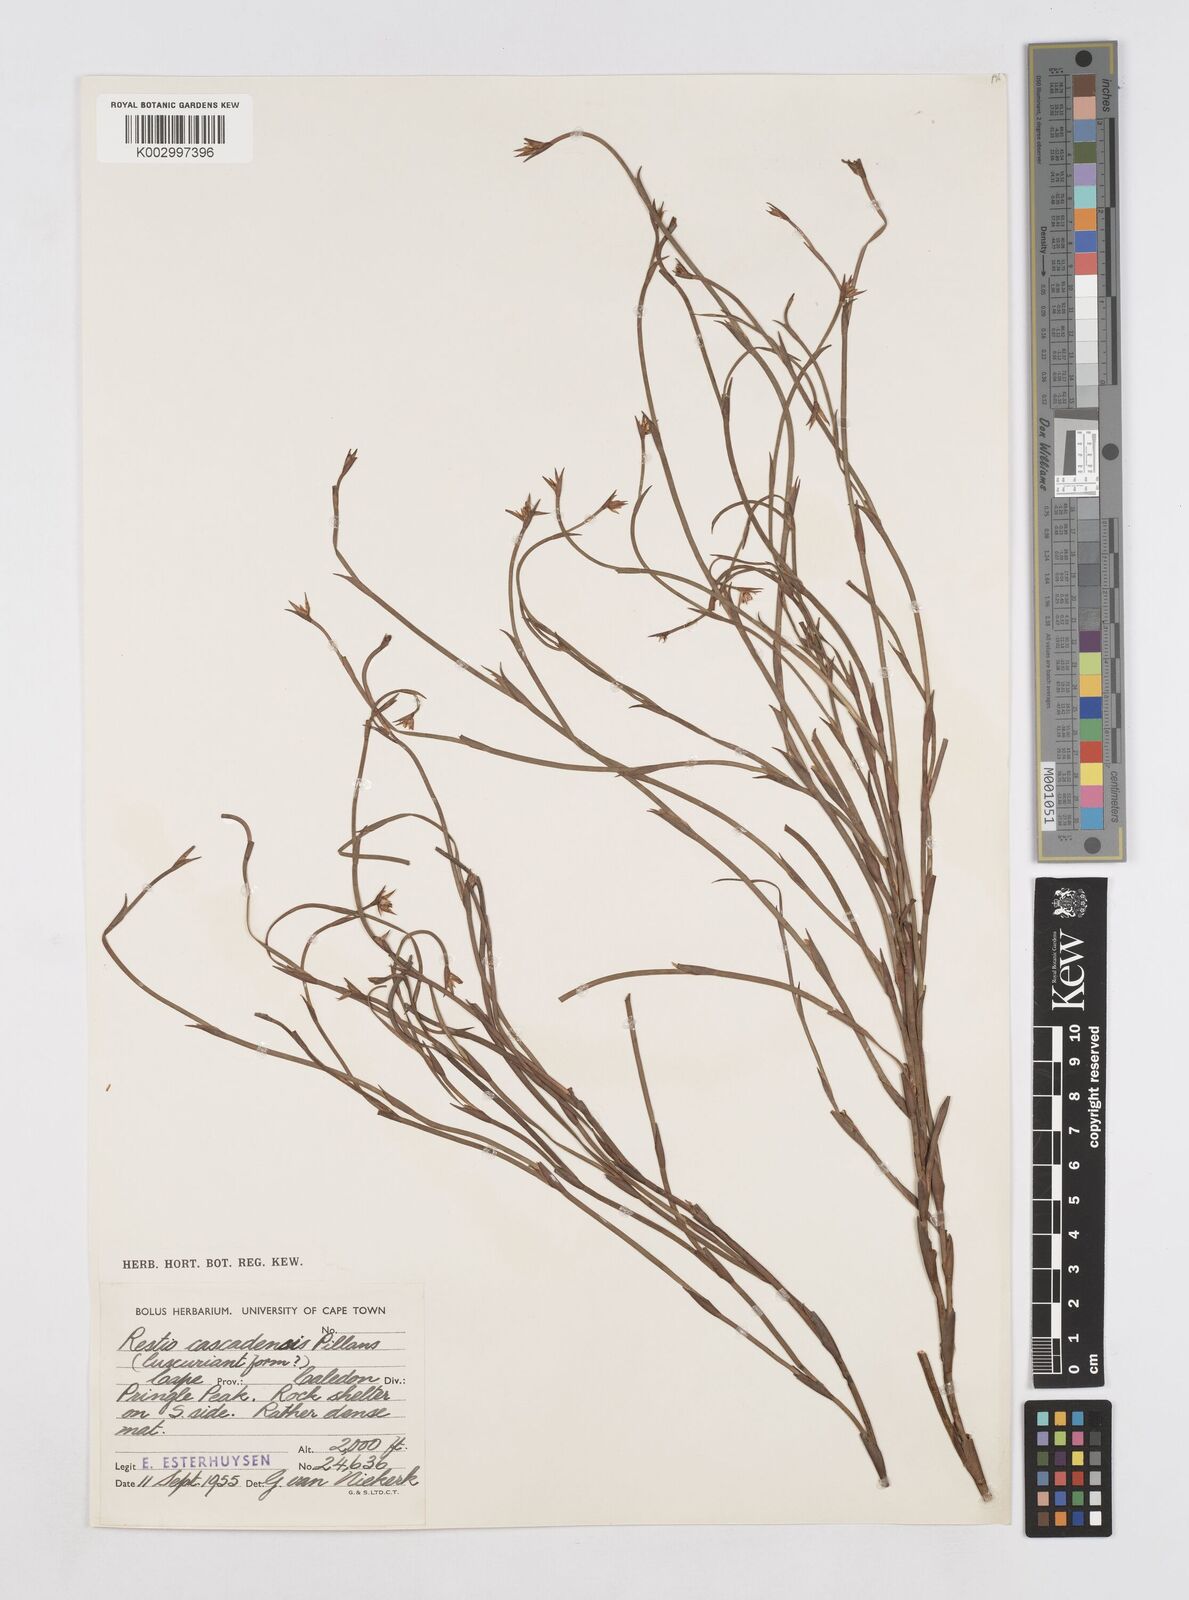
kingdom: Plantae
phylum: Tracheophyta
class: Liliopsida
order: Poales
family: Restionaceae
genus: Platycaulos
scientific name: Platycaulos cascadensis
